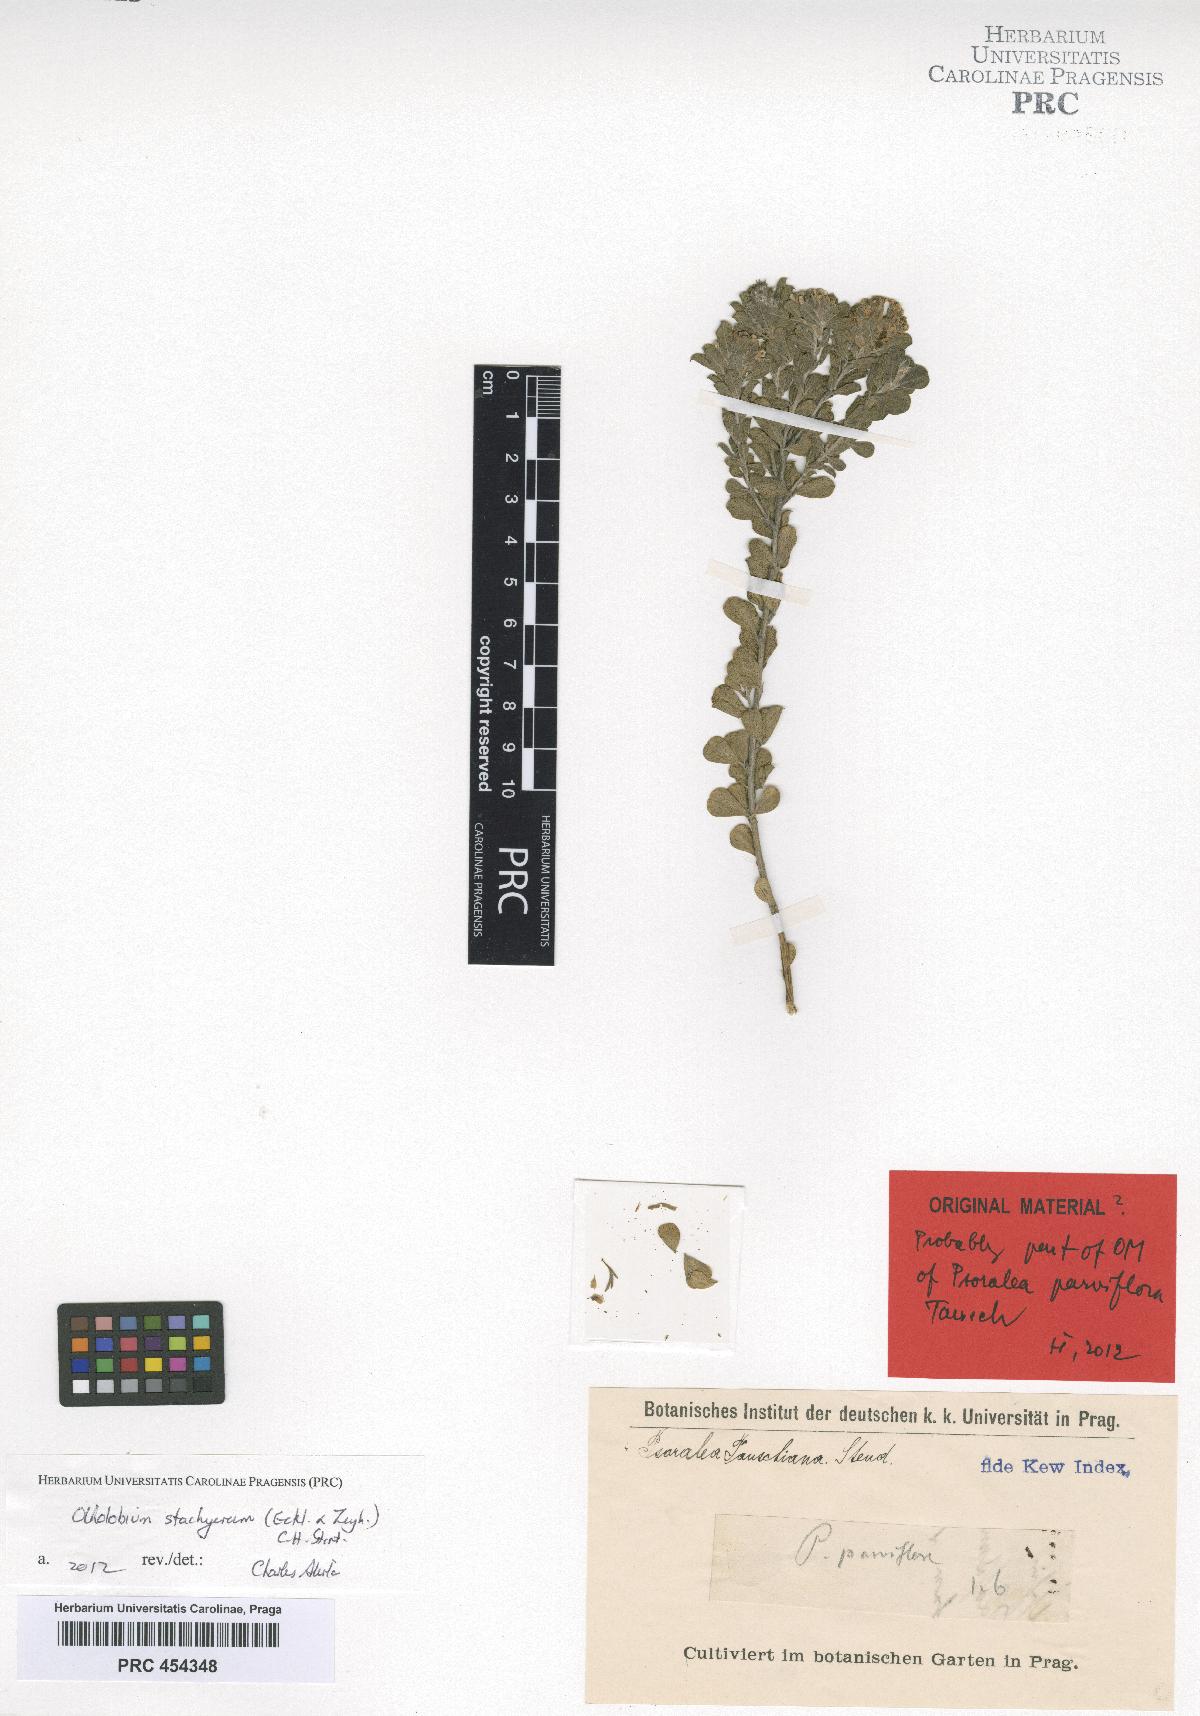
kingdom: Plantae
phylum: Tracheophyta
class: Magnoliopsida
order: Fabales
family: Fabaceae
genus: Psoralea
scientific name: Psoralea tauschiana
